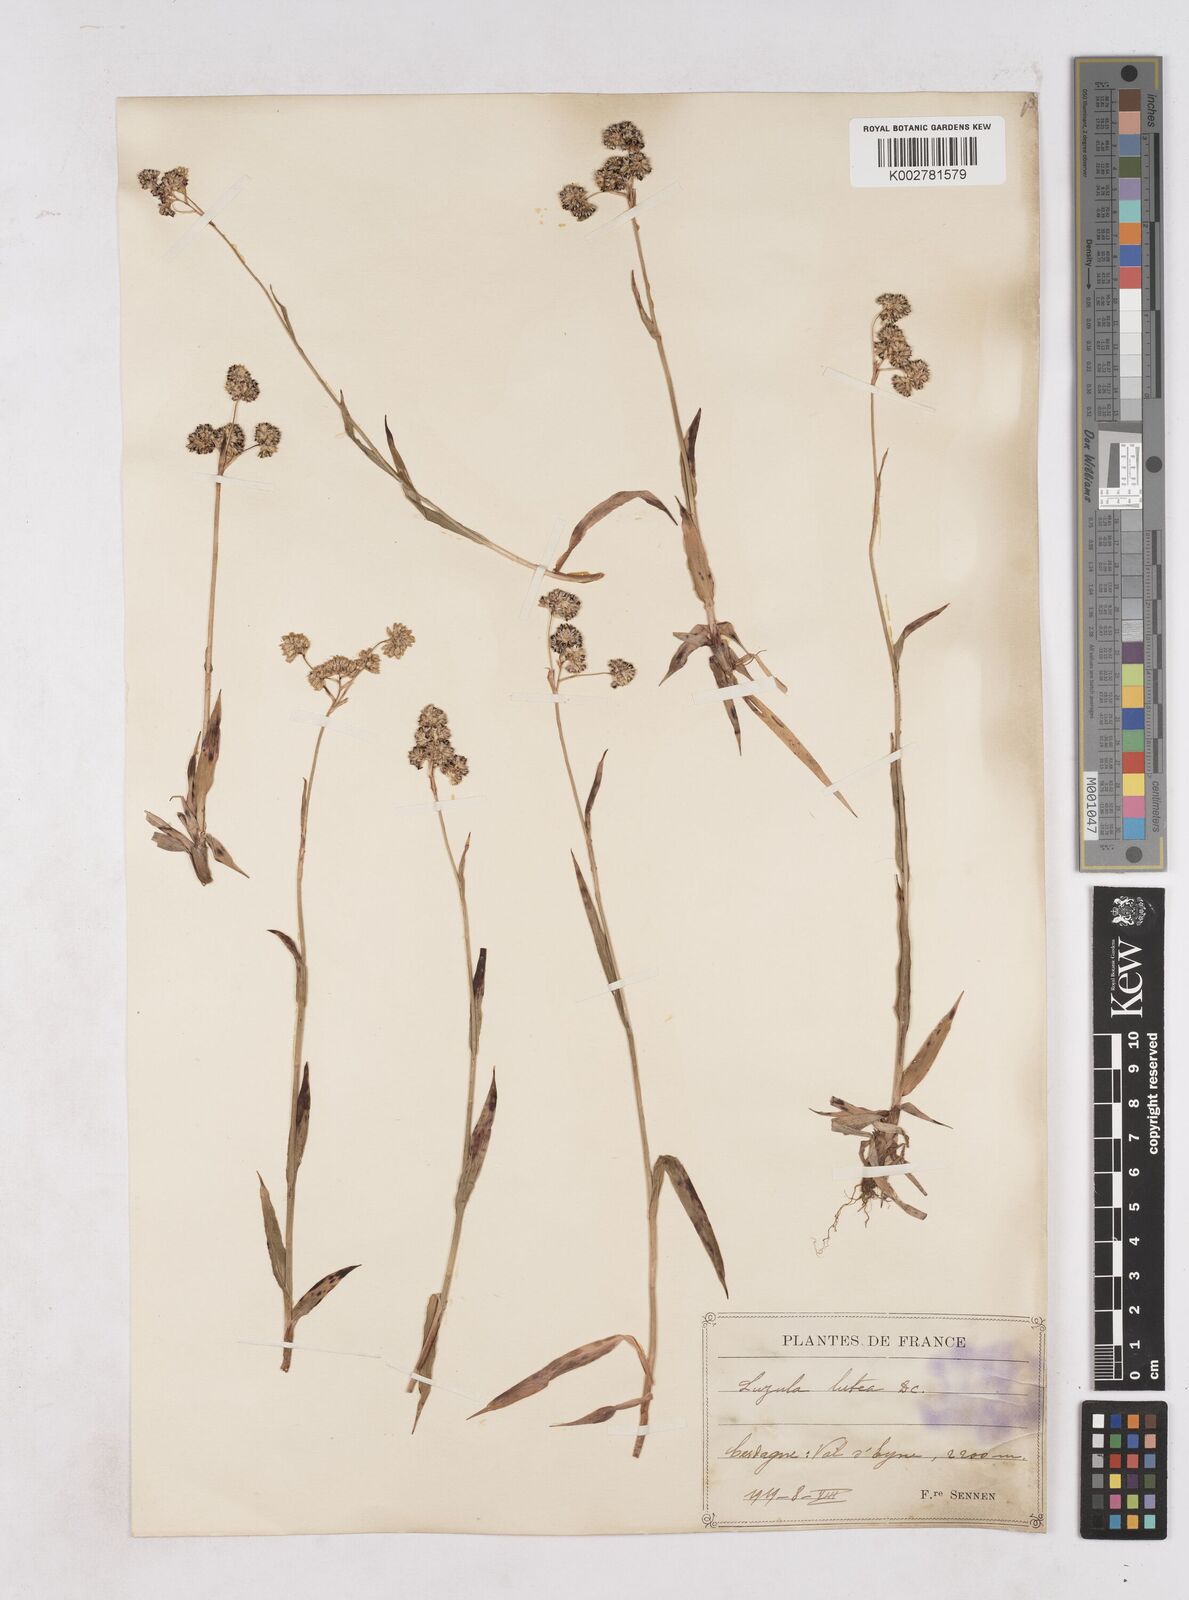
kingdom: Plantae
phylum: Tracheophyta
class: Liliopsida
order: Poales
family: Juncaceae
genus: Luzula
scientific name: Luzula lutea
